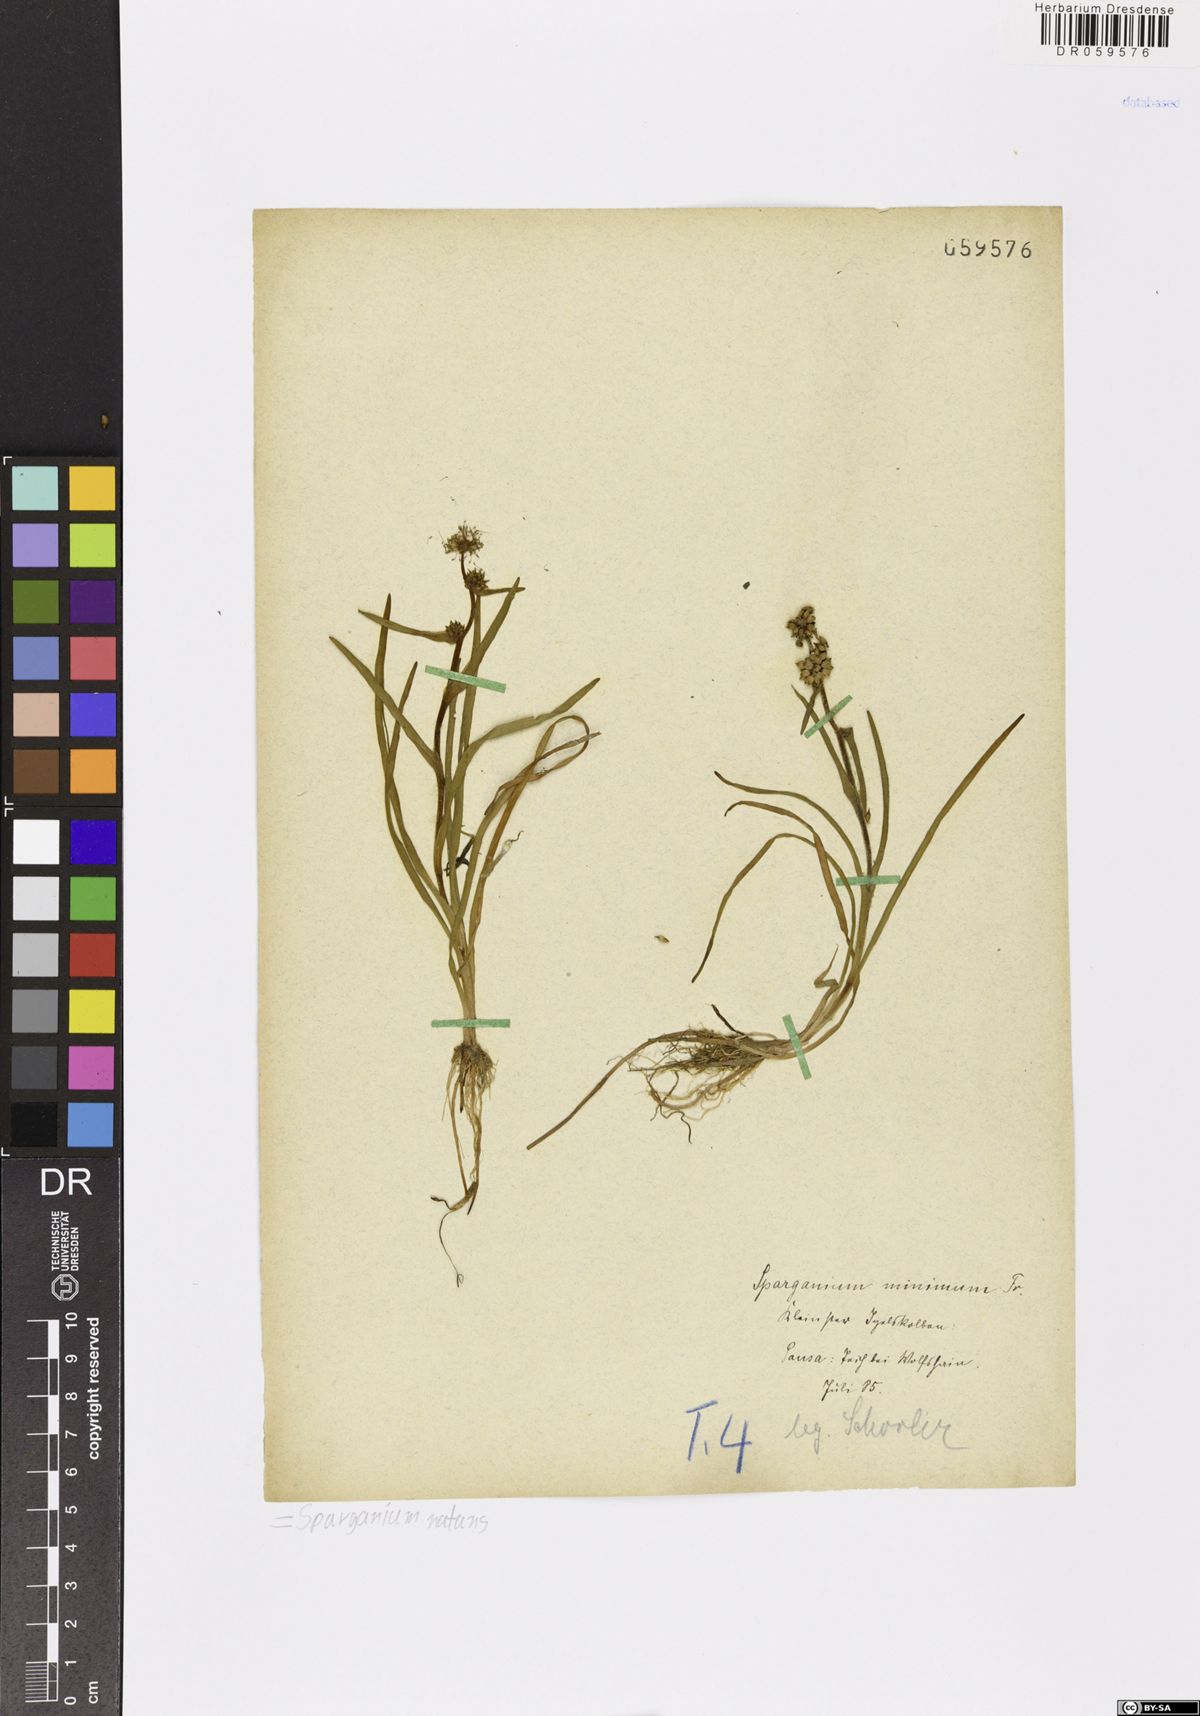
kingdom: Plantae
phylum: Tracheophyta
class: Liliopsida
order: Poales
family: Typhaceae
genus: Sparganium
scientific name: Sparganium natans
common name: Least bur-reed
